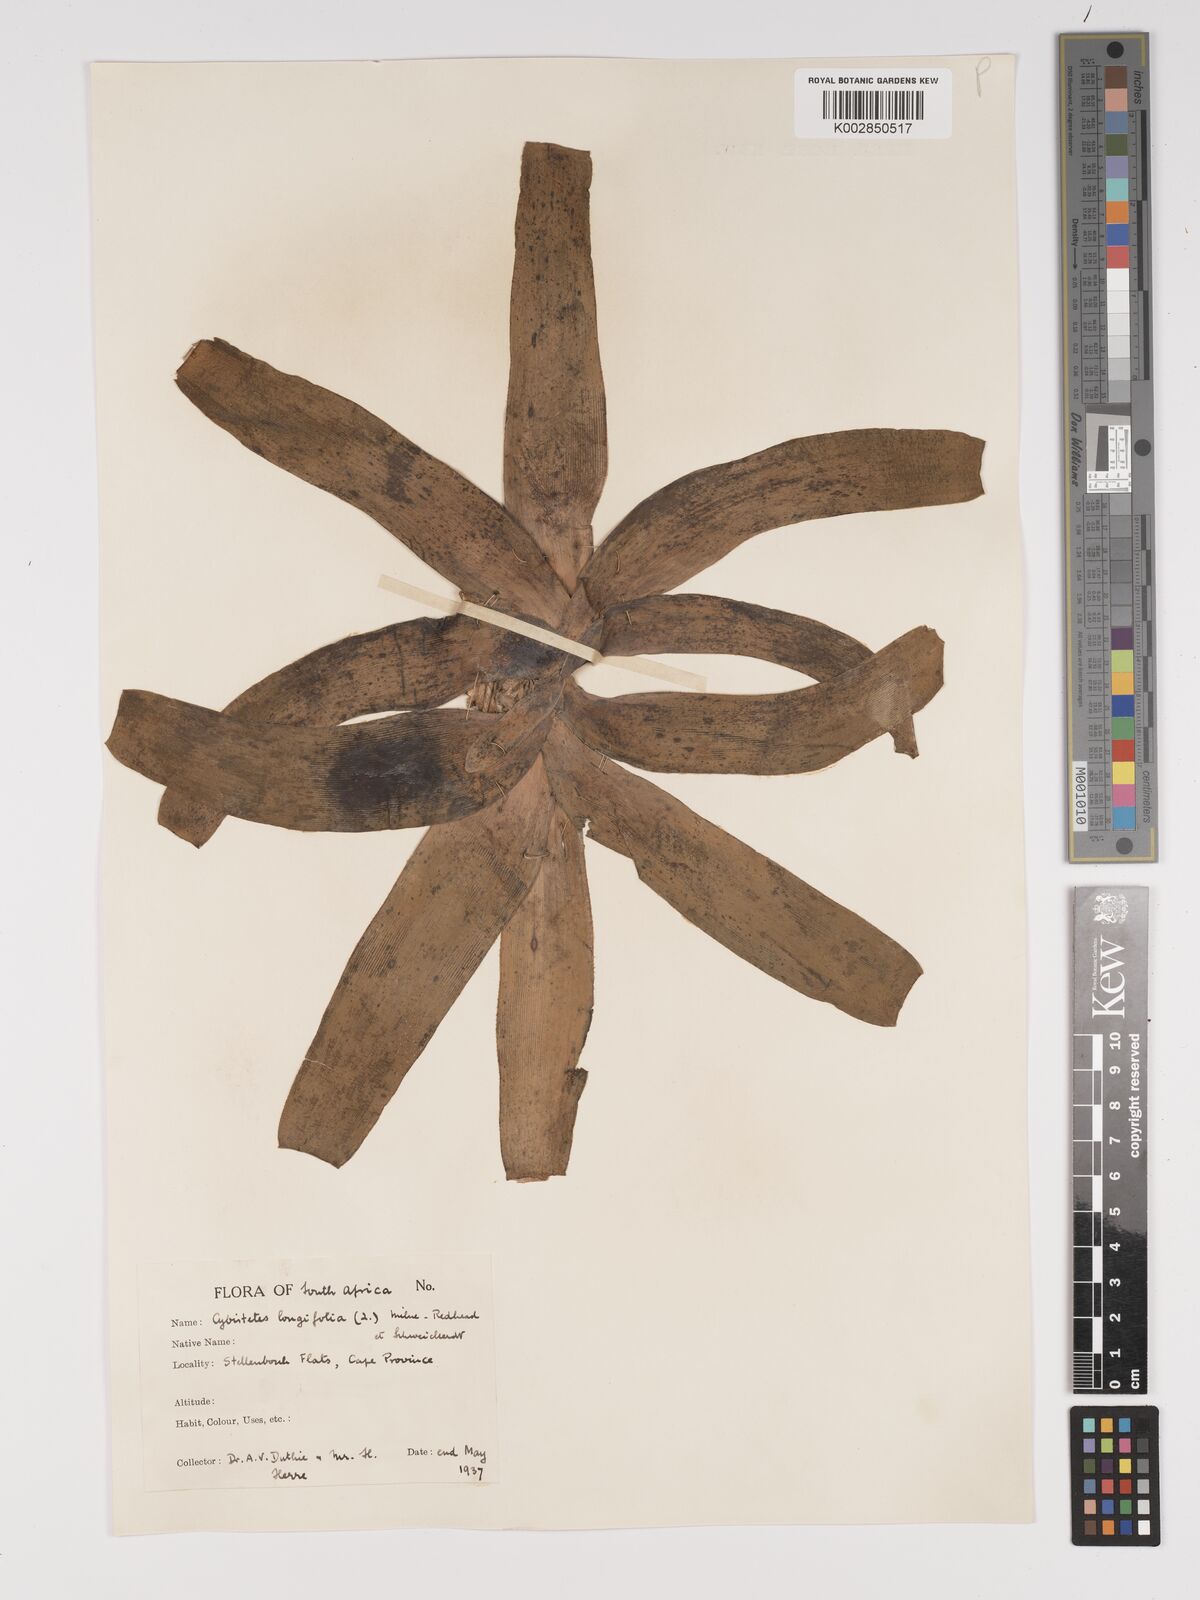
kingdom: Plantae
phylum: Tracheophyta
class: Liliopsida
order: Asparagales
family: Amaryllidaceae
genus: Ammocharis
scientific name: Ammocharis longifolia
